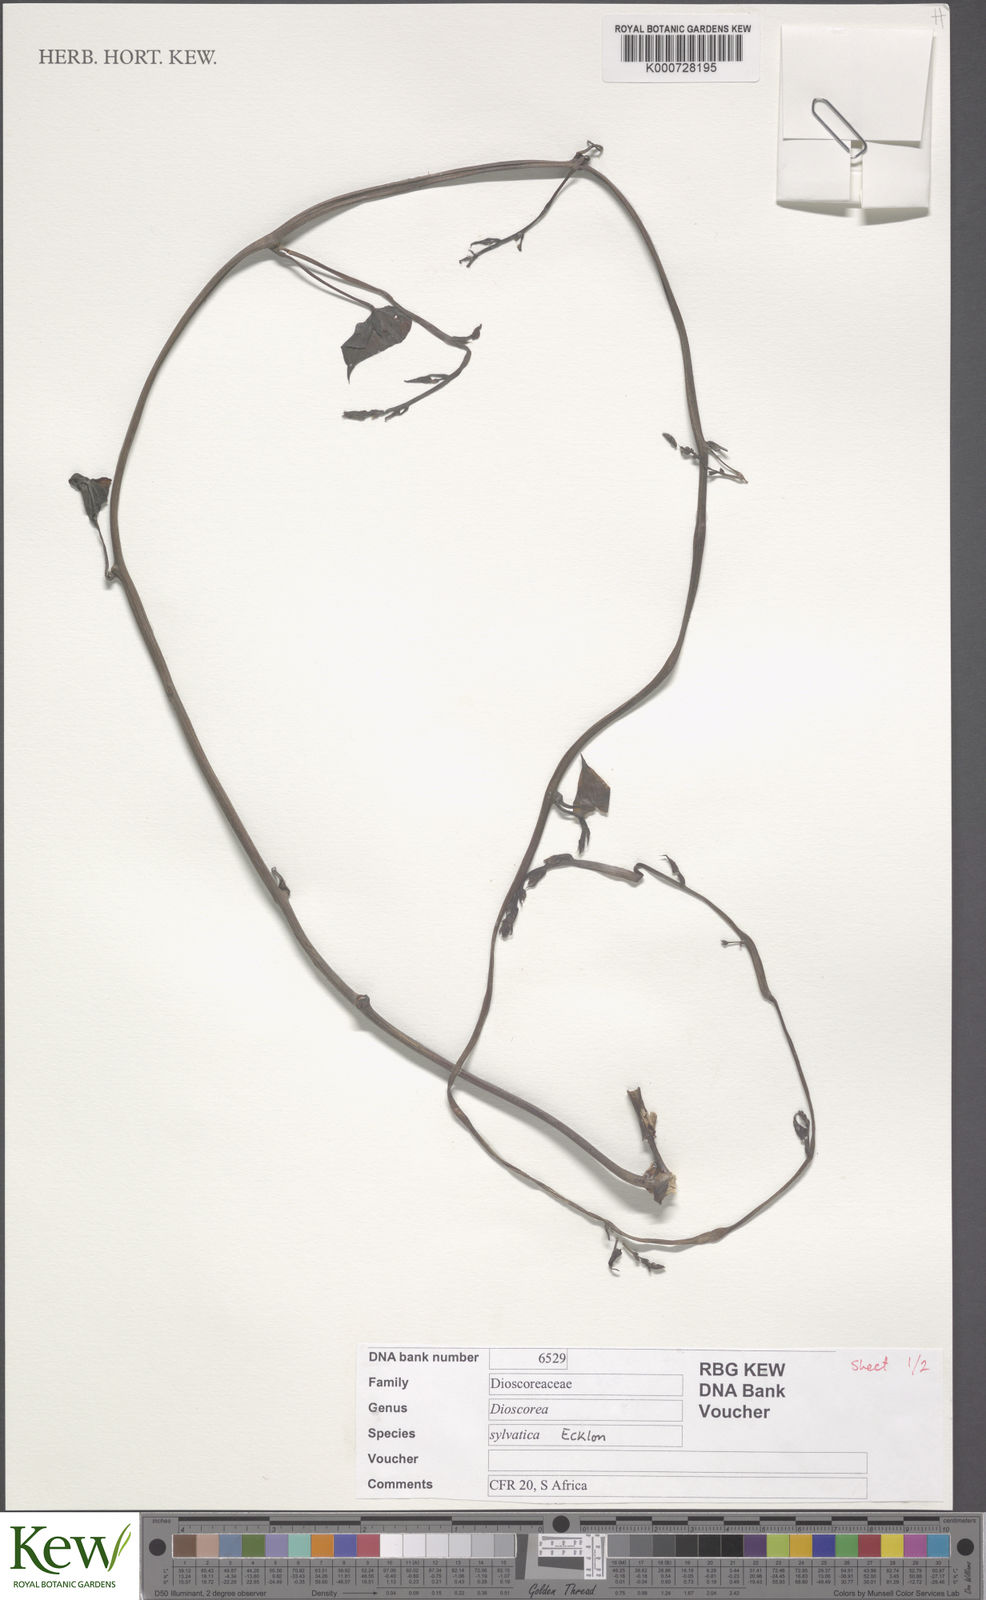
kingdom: Plantae
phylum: Tracheophyta
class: Liliopsida
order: Dioscoreales
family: Dioscoreaceae
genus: Dioscorea
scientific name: Dioscorea sylvatica
